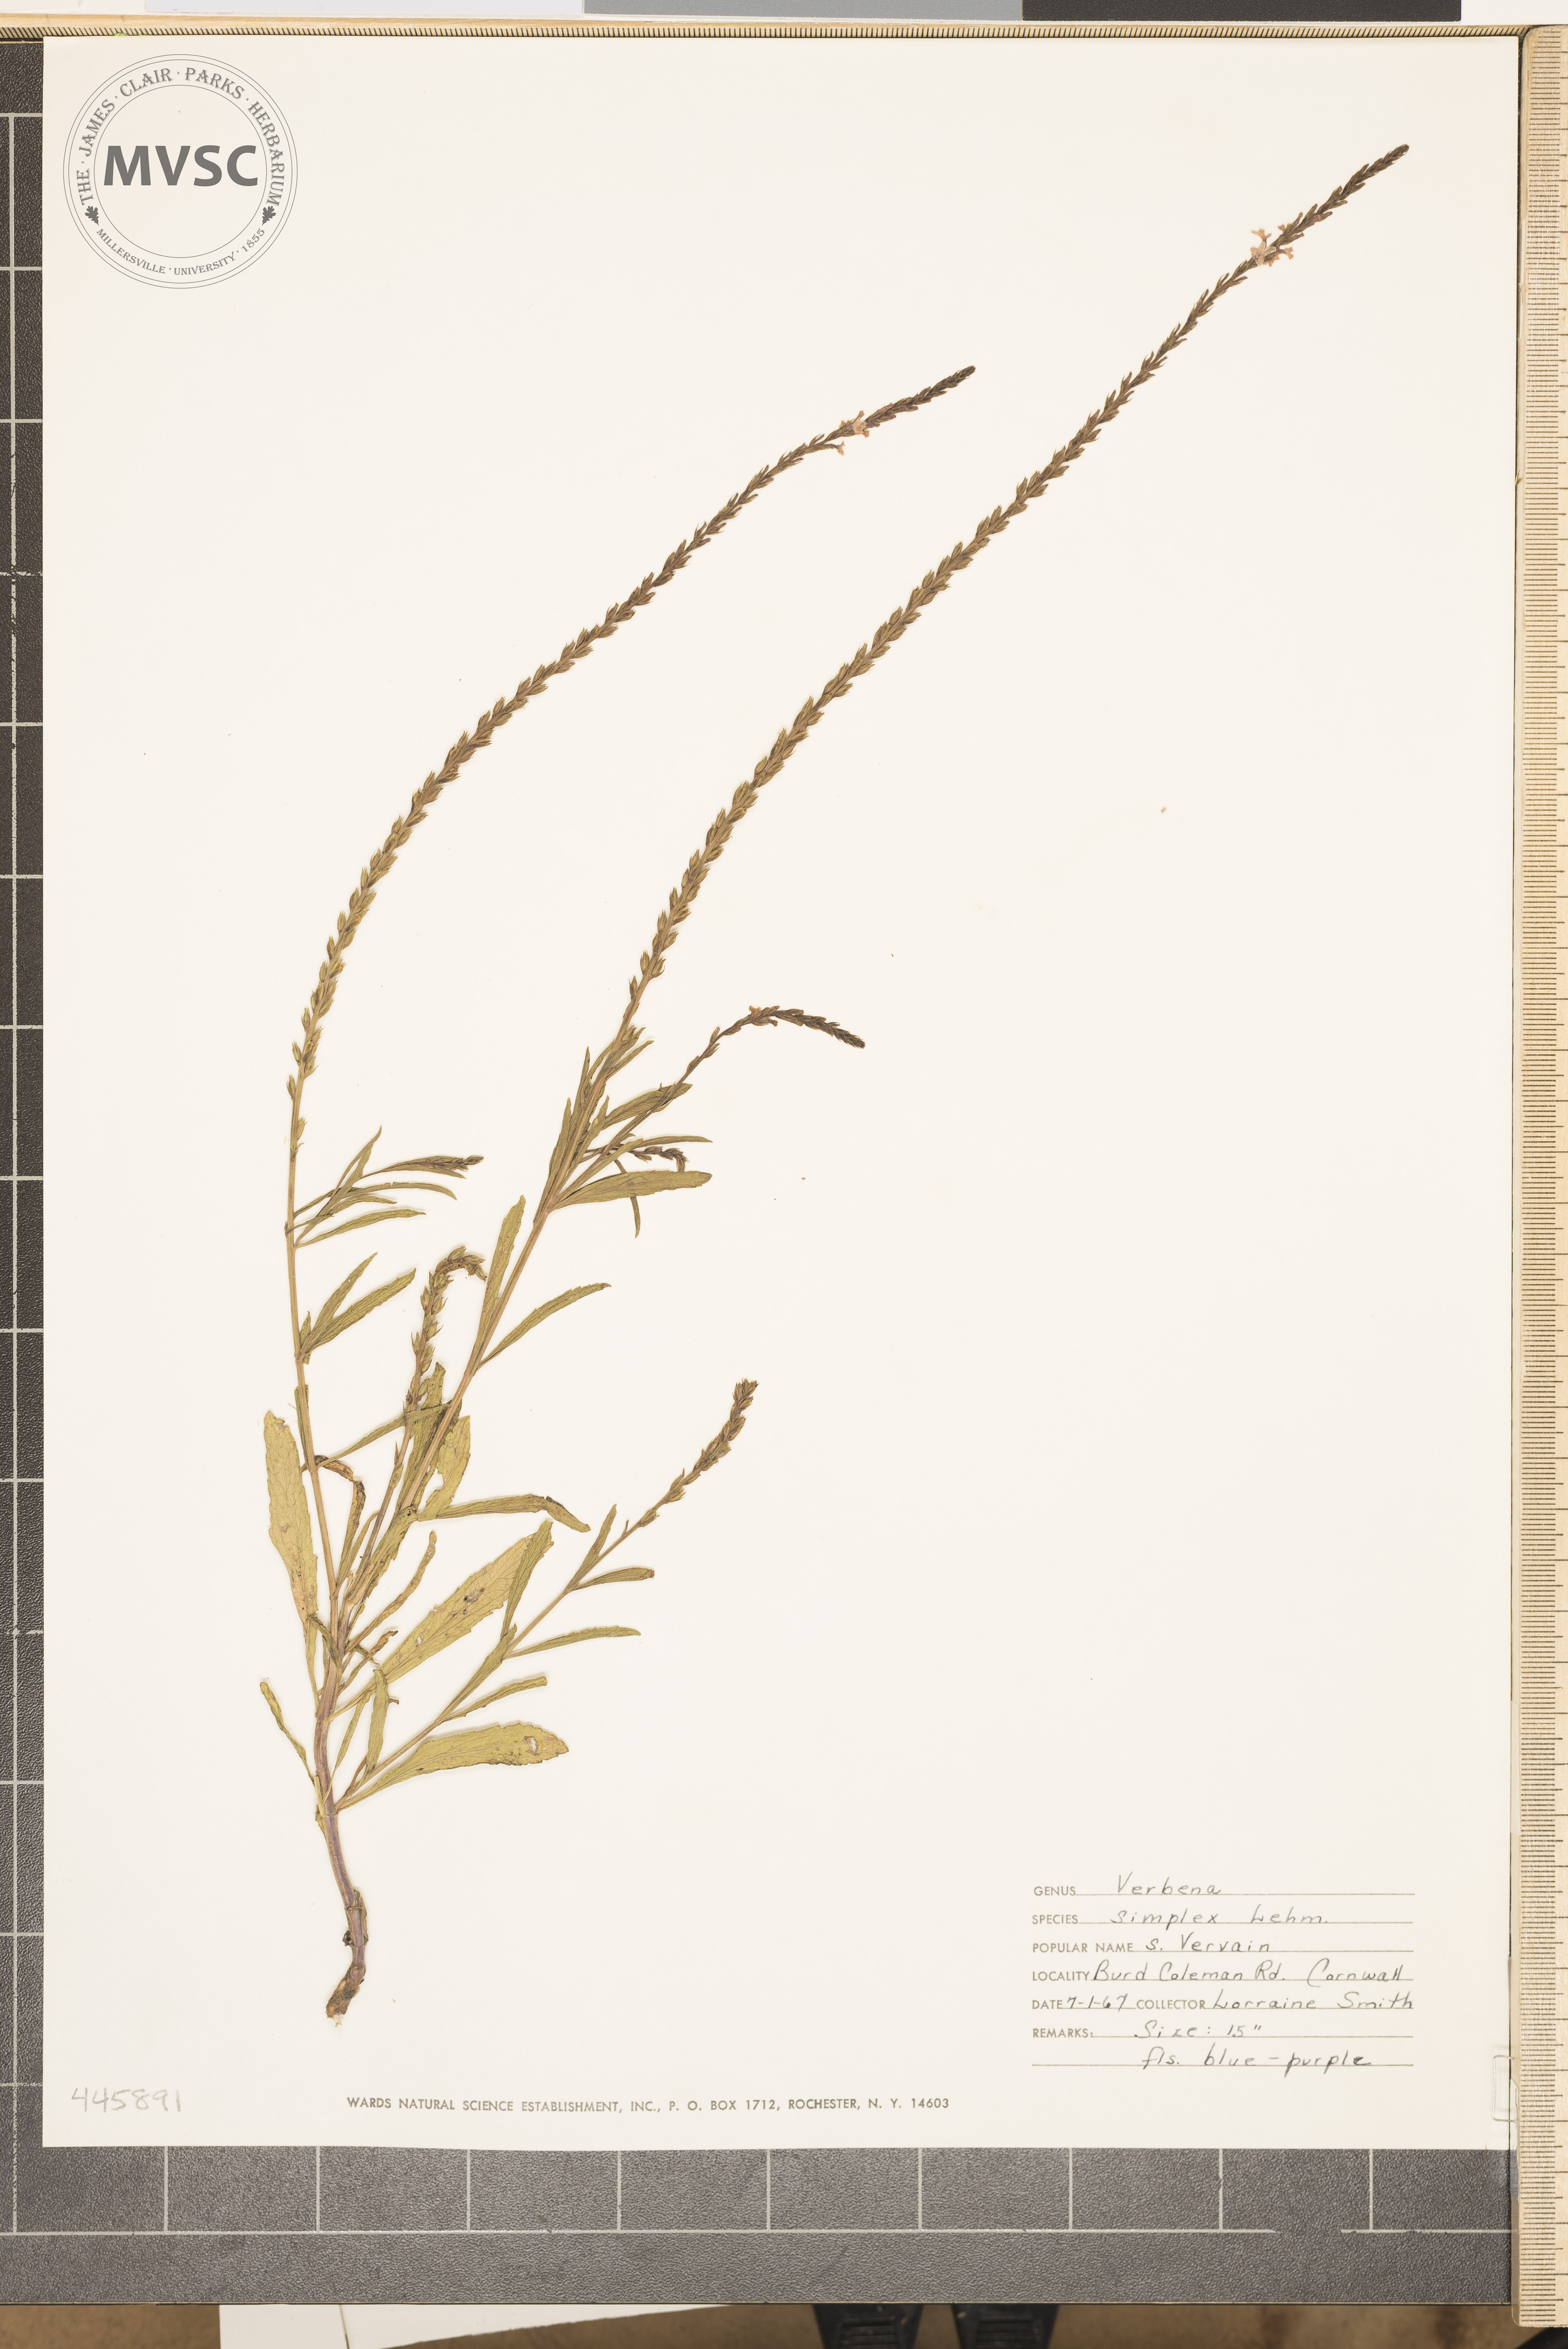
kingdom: Plantae
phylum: Tracheophyta
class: Magnoliopsida
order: Lamiales
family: Verbenaceae
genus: Verbena
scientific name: Verbena simplex
